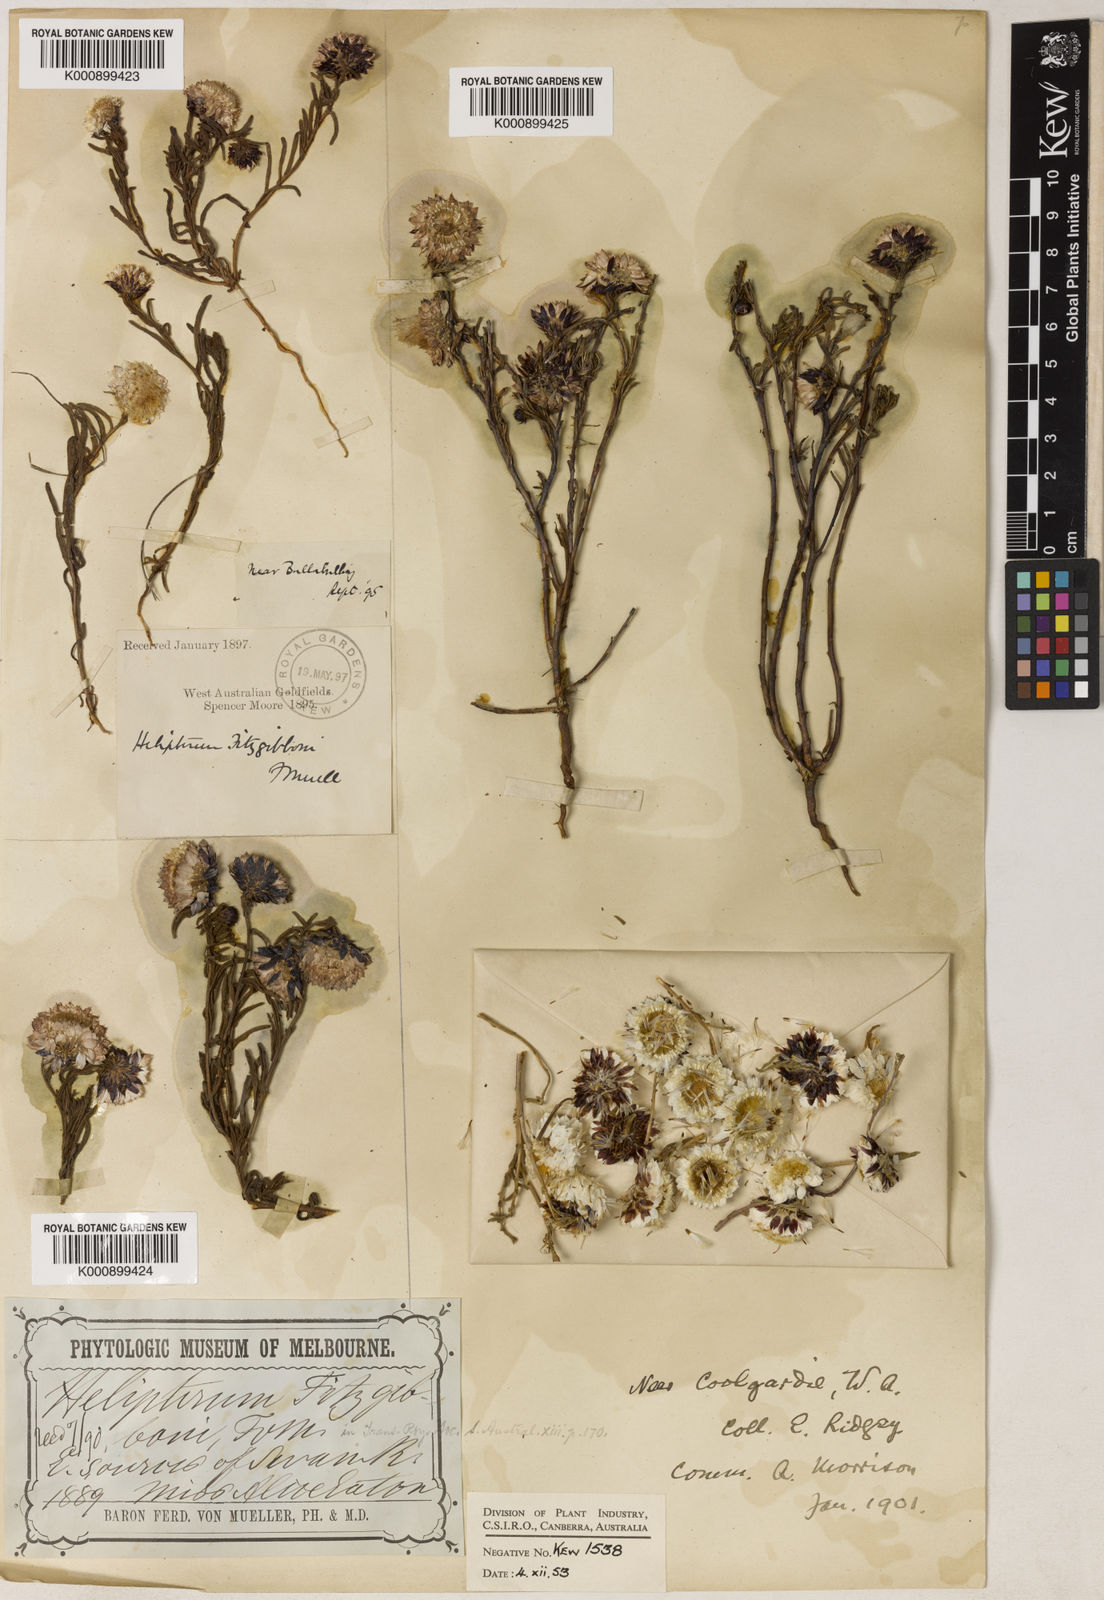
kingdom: Plantae
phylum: Tracheophyta
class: Magnoliopsida
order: Asterales
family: Asteraceae
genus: Waitzia
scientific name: Waitzia fitzgibbonii
